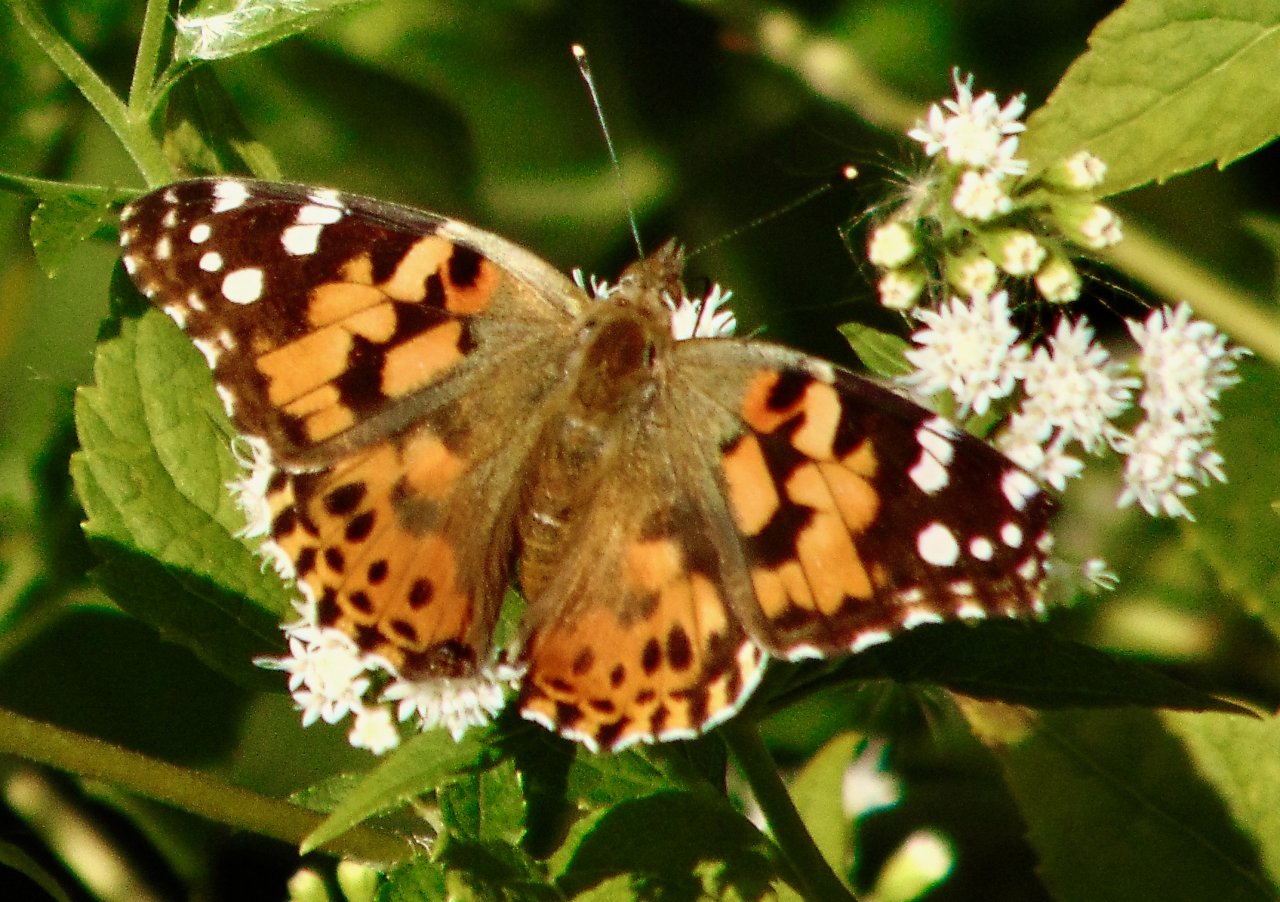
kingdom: Animalia
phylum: Arthropoda
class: Insecta
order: Lepidoptera
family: Nymphalidae
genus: Vanessa
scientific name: Vanessa cardui
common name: Painted Lady
